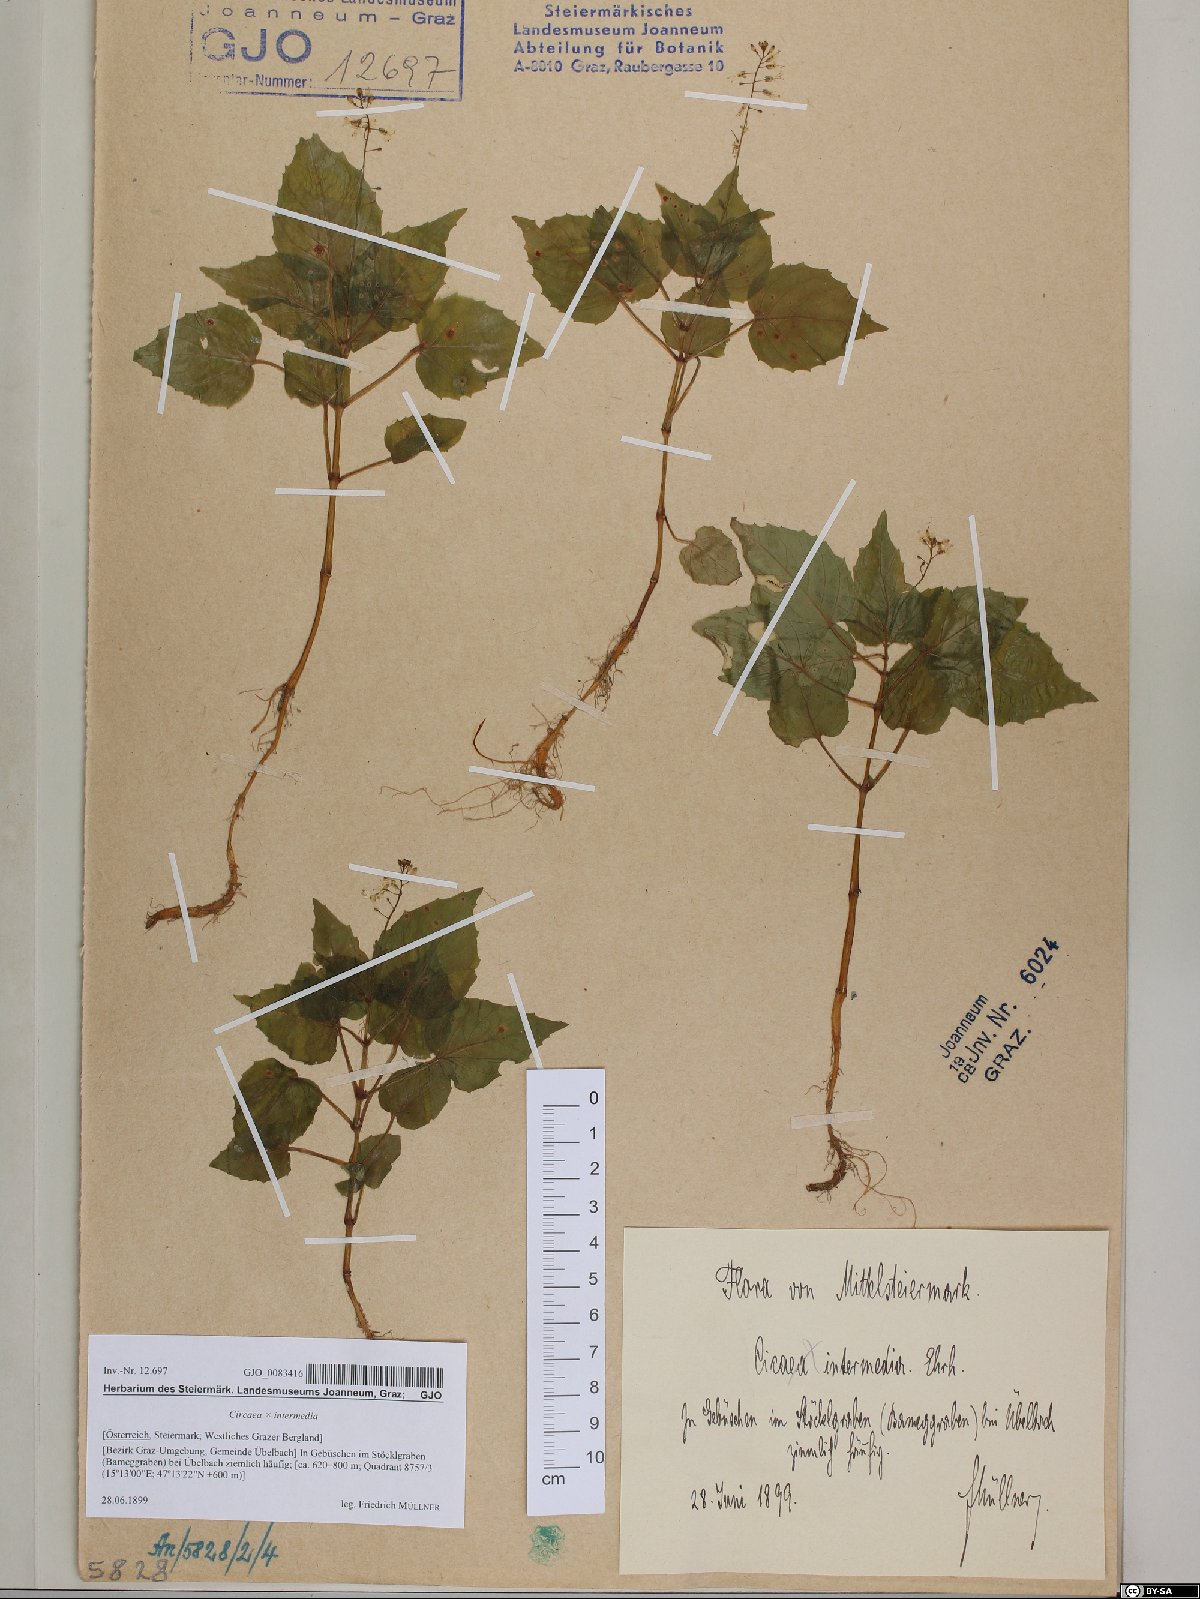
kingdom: Plantae
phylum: Tracheophyta
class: Magnoliopsida
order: Myrtales
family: Onagraceae
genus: Circaea
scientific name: Circaea intermedia
